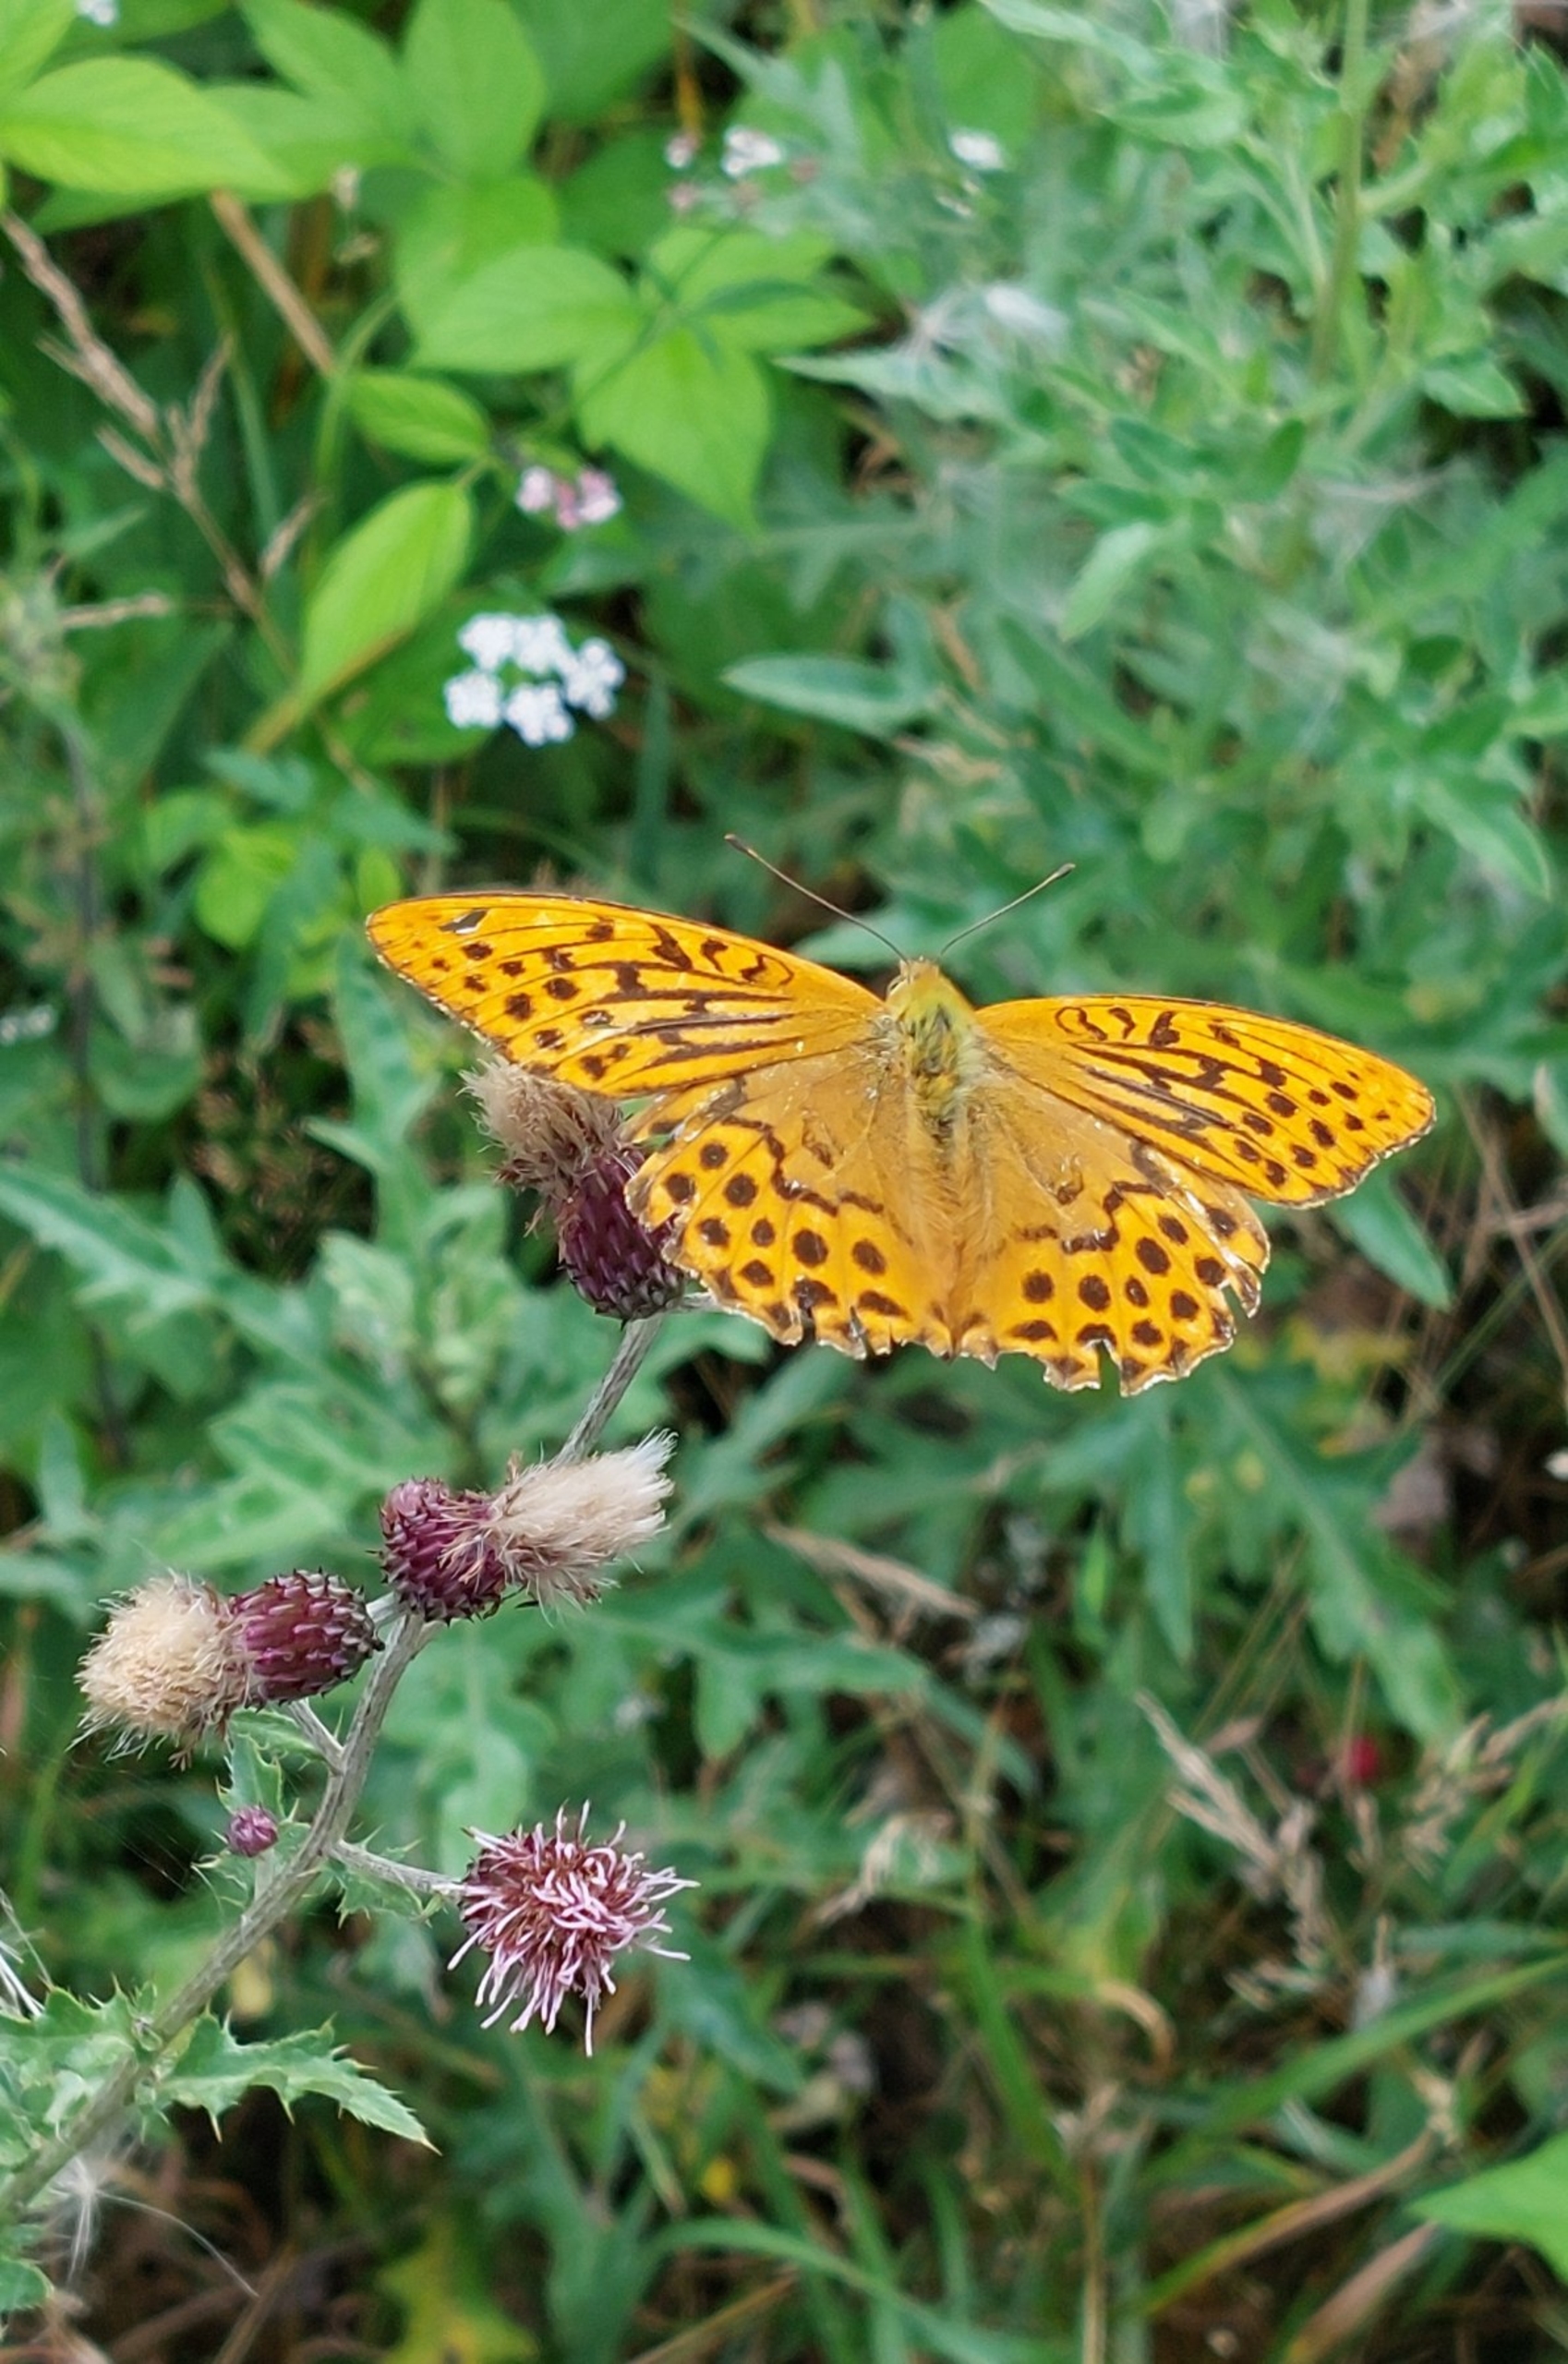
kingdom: Animalia
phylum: Arthropoda
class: Insecta
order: Lepidoptera
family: Nymphalidae
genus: Argynnis
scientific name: Argynnis paphia
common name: Kejserkåbe
